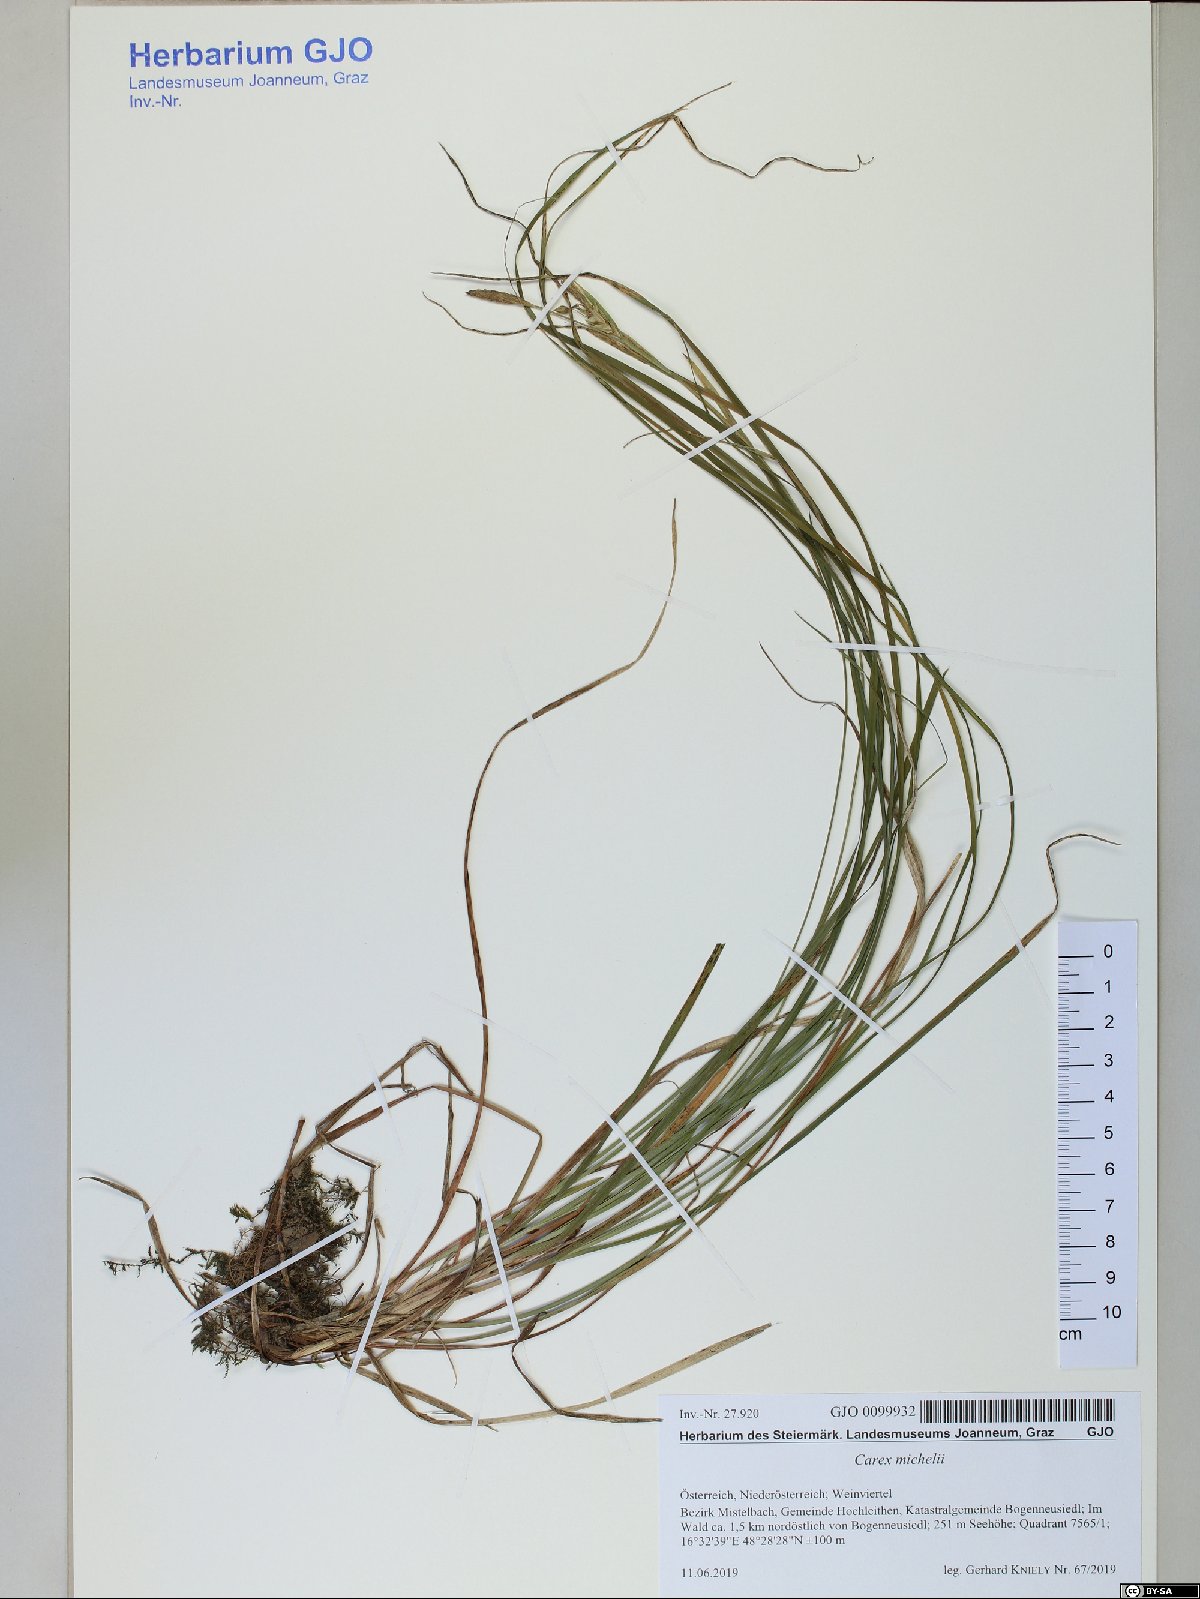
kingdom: Plantae
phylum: Tracheophyta
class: Liliopsida
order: Poales
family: Cyperaceae
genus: Carex
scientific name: Carex michelii
